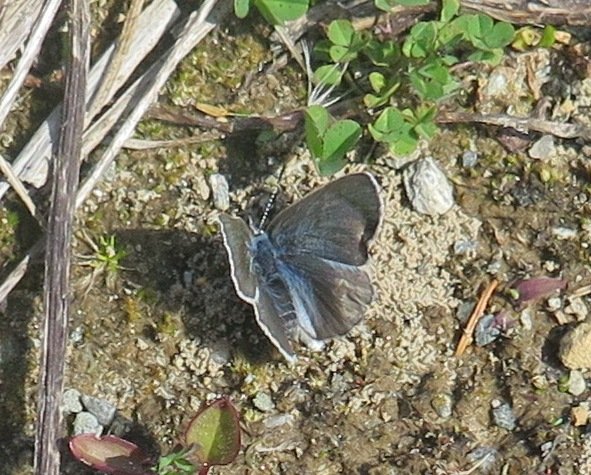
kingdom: Animalia
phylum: Arthropoda
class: Insecta
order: Lepidoptera
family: Lycaenidae
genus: Glaucopsyche
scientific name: Glaucopsyche lygdamus
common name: Silvery Blue
